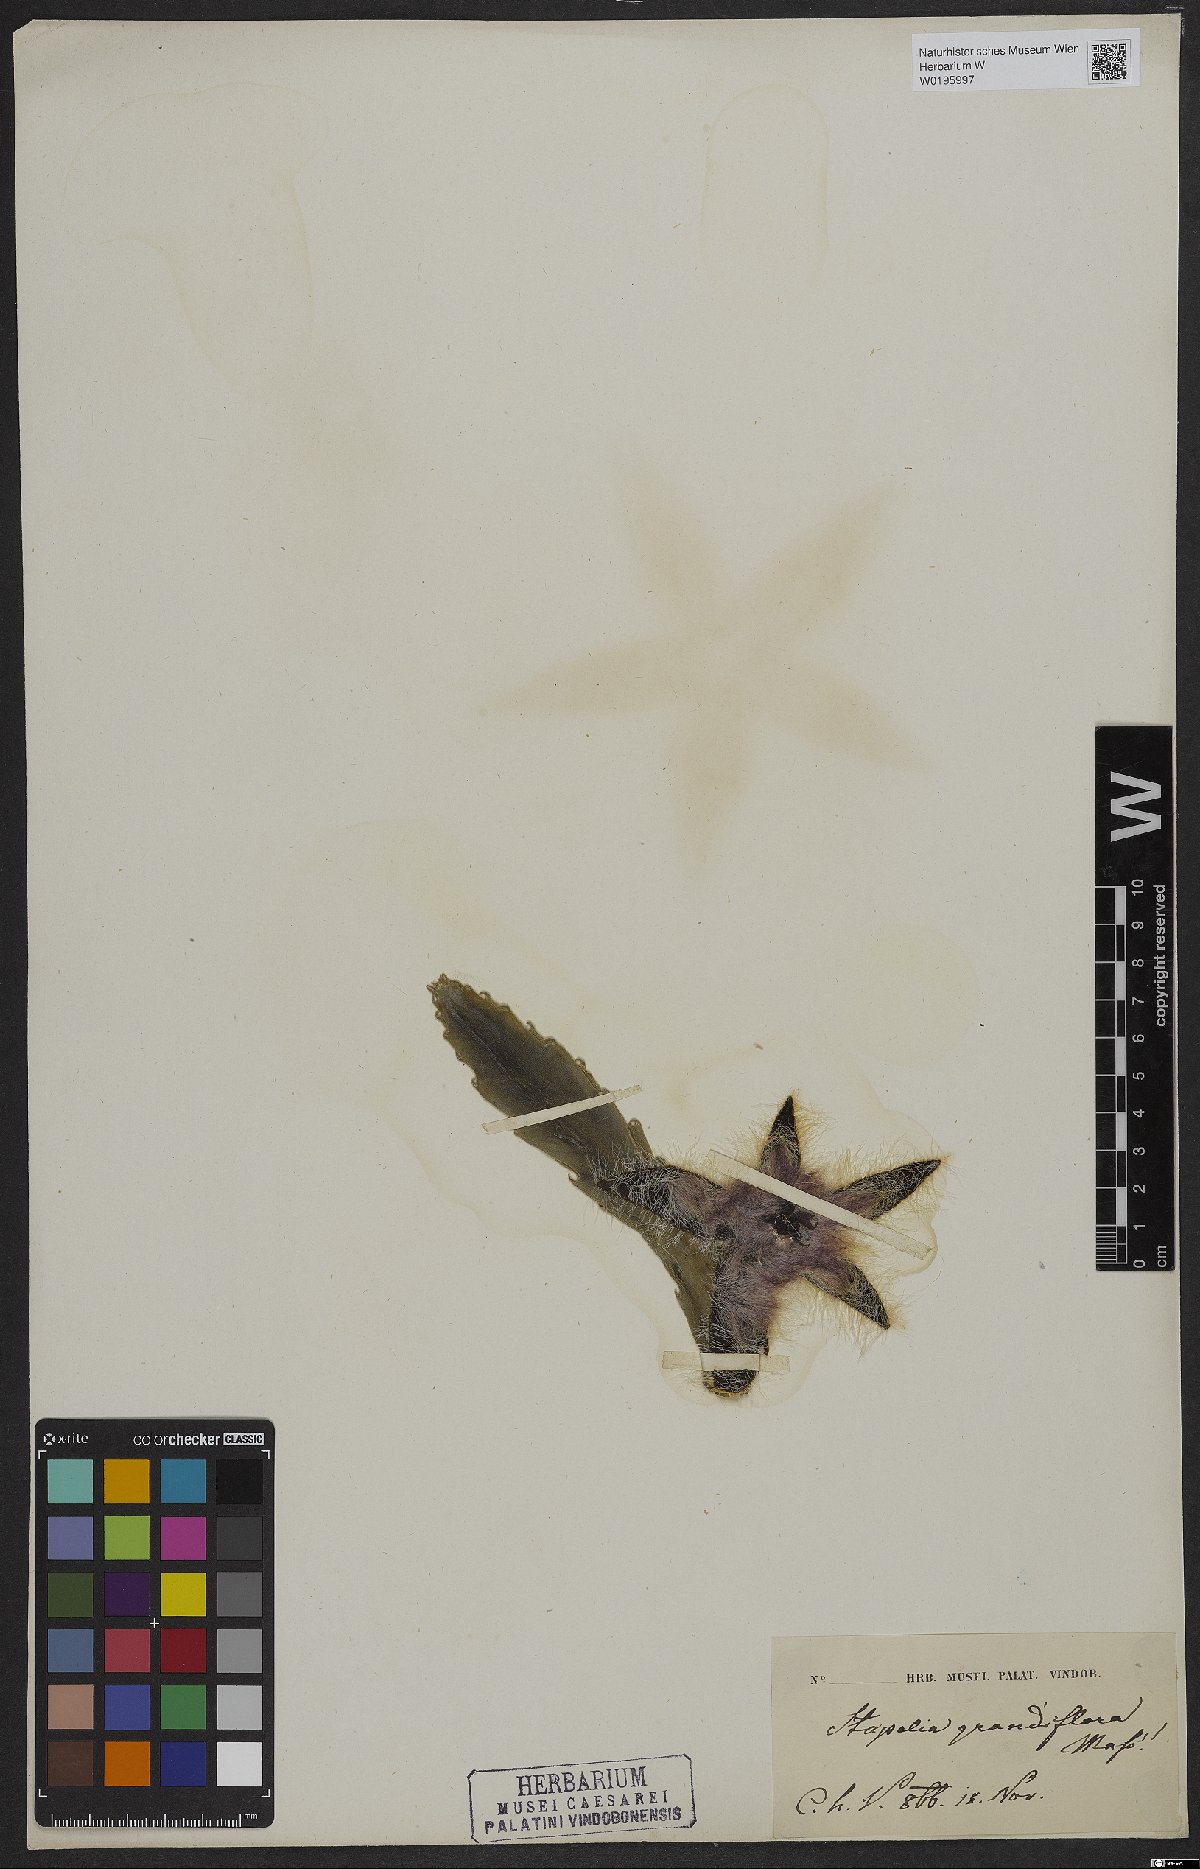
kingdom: Plantae
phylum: Tracheophyta
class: Magnoliopsida
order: Gentianales
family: Apocynaceae
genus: Ceropegia
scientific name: Ceropegia grandiflora
